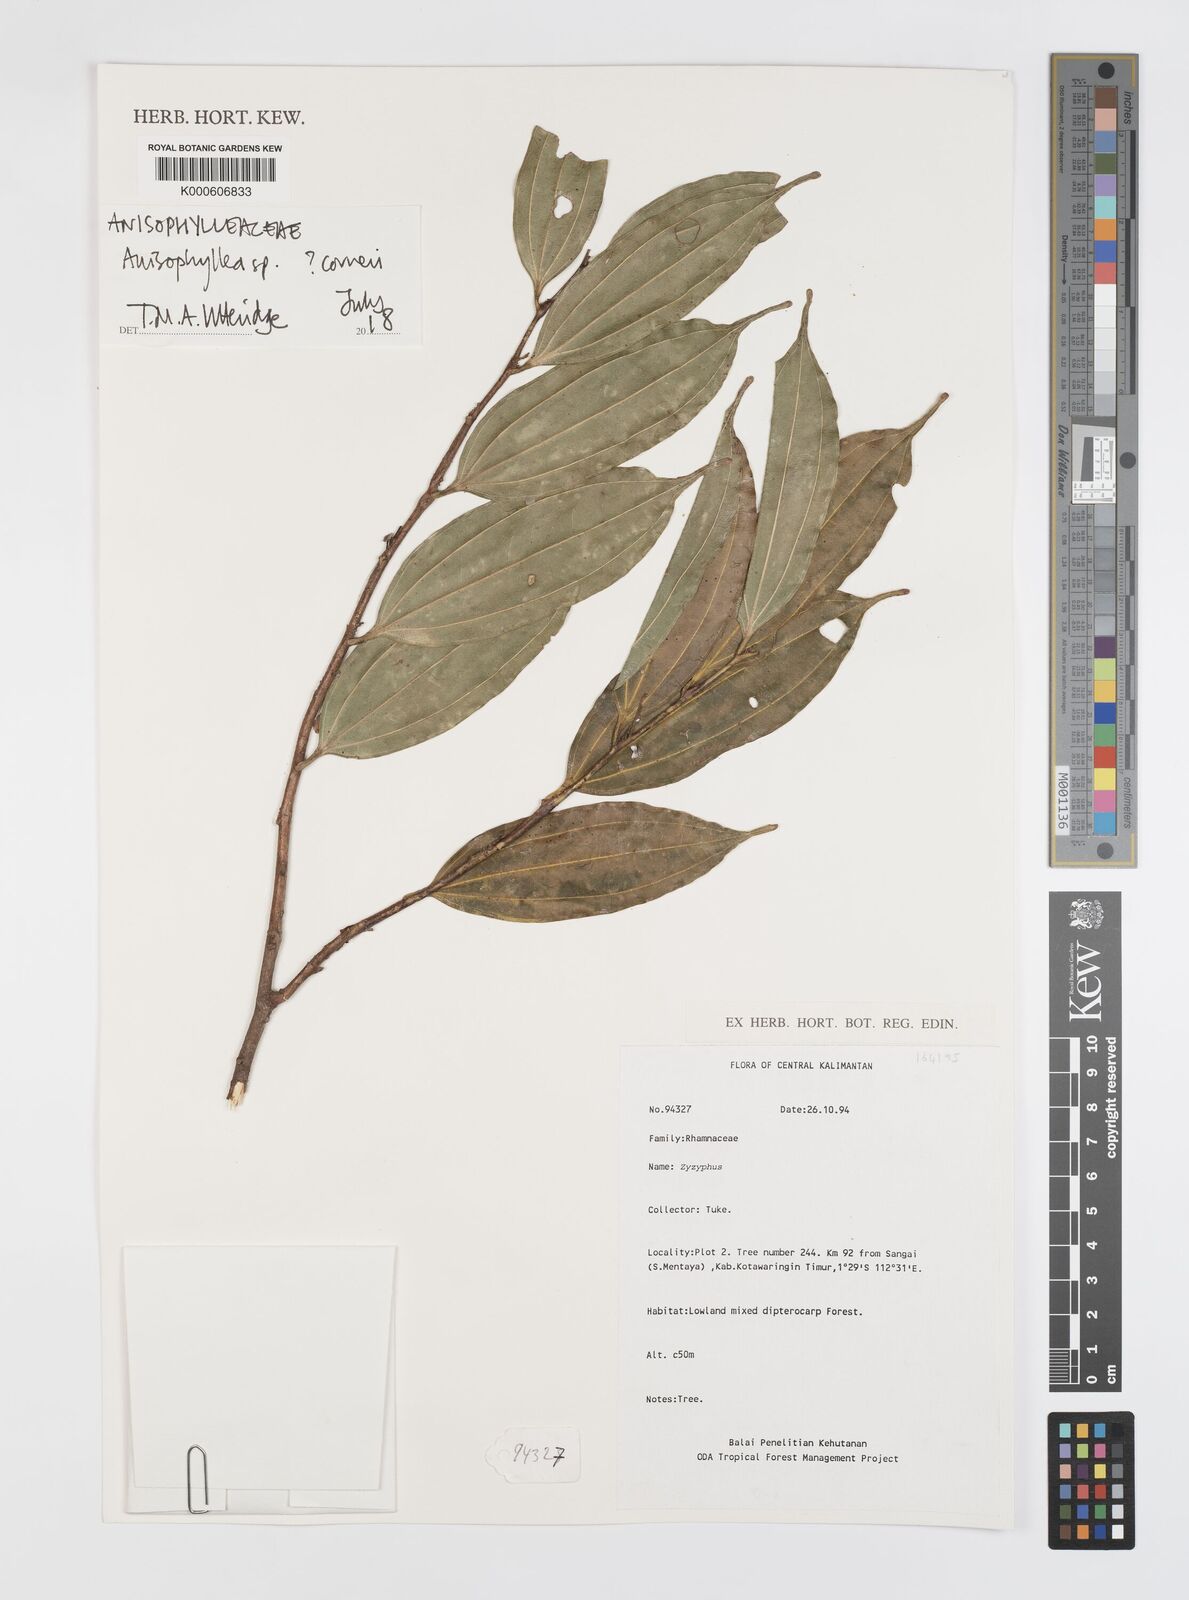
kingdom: Plantae
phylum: Tracheophyta
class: Magnoliopsida
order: Cucurbitales
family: Anisophylleaceae
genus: Anisophyllea
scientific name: Anisophyllea
